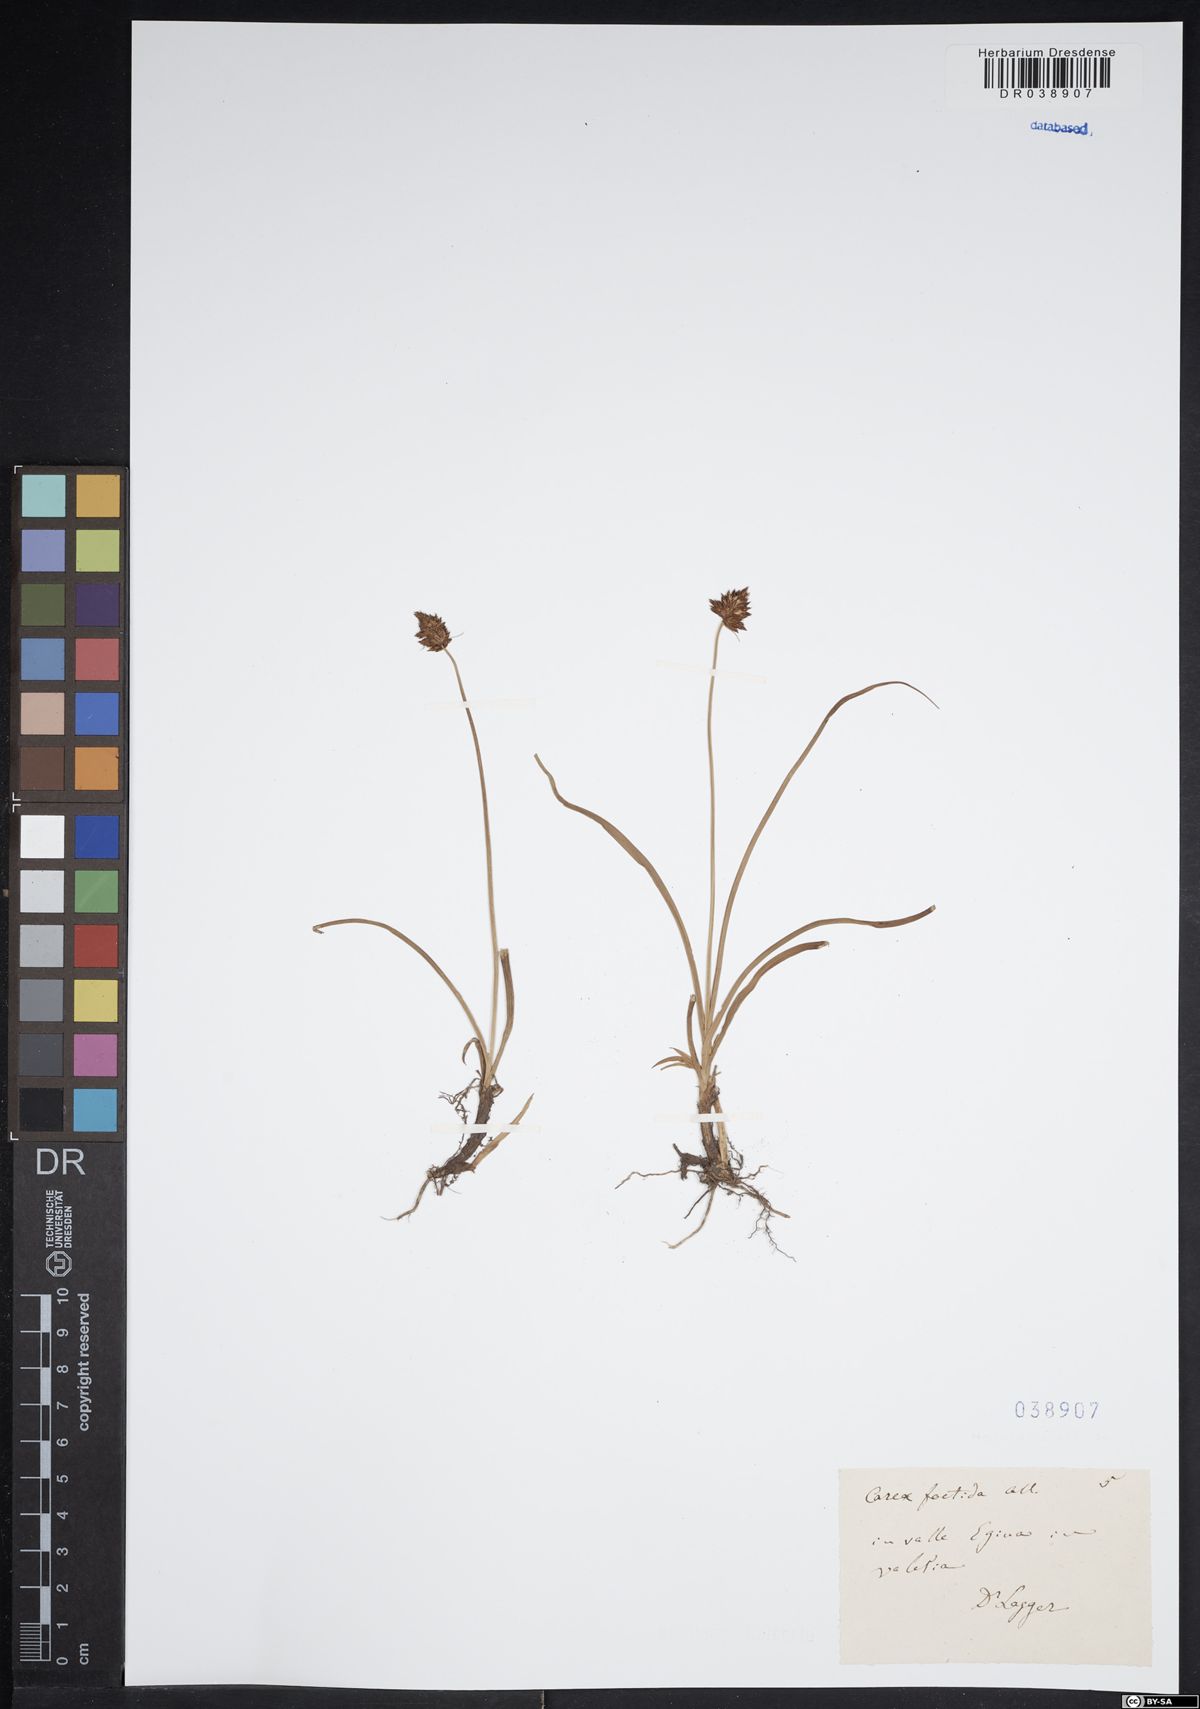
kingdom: Plantae
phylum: Tracheophyta
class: Liliopsida
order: Poales
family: Cyperaceae
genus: Carex
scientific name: Carex foetida
